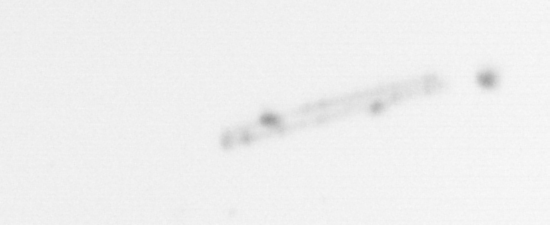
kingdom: Chromista
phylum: Ochrophyta
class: Bacillariophyceae
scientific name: Bacillariophyceae
